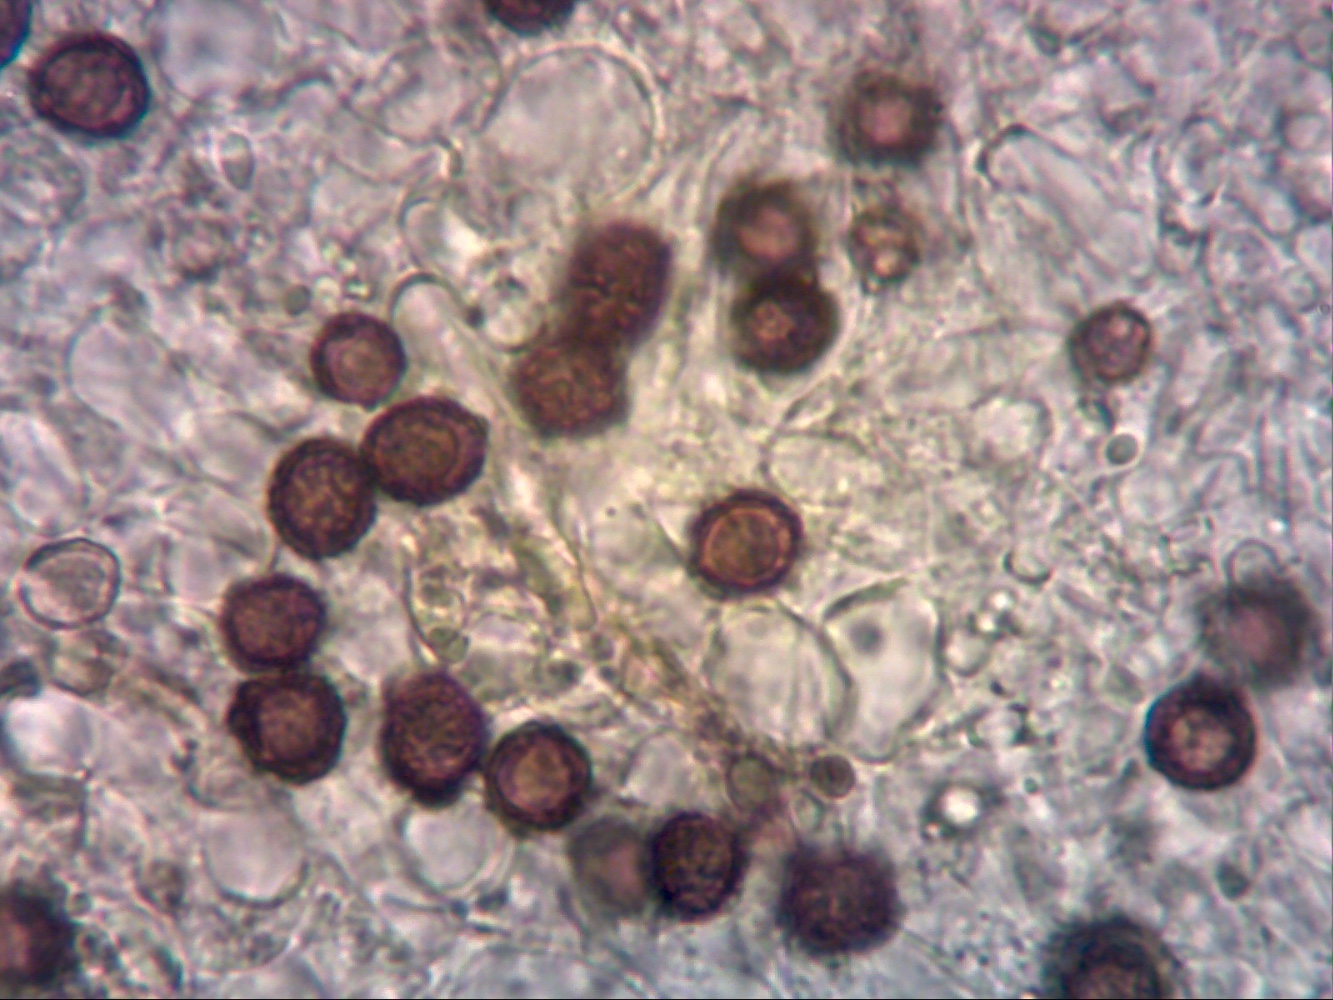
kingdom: Fungi
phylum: Basidiomycota
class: Agaricomycetes
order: Boletales
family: Boletaceae
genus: Strobilomyces
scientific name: Strobilomyces strobilaceus
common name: koglerørhat
